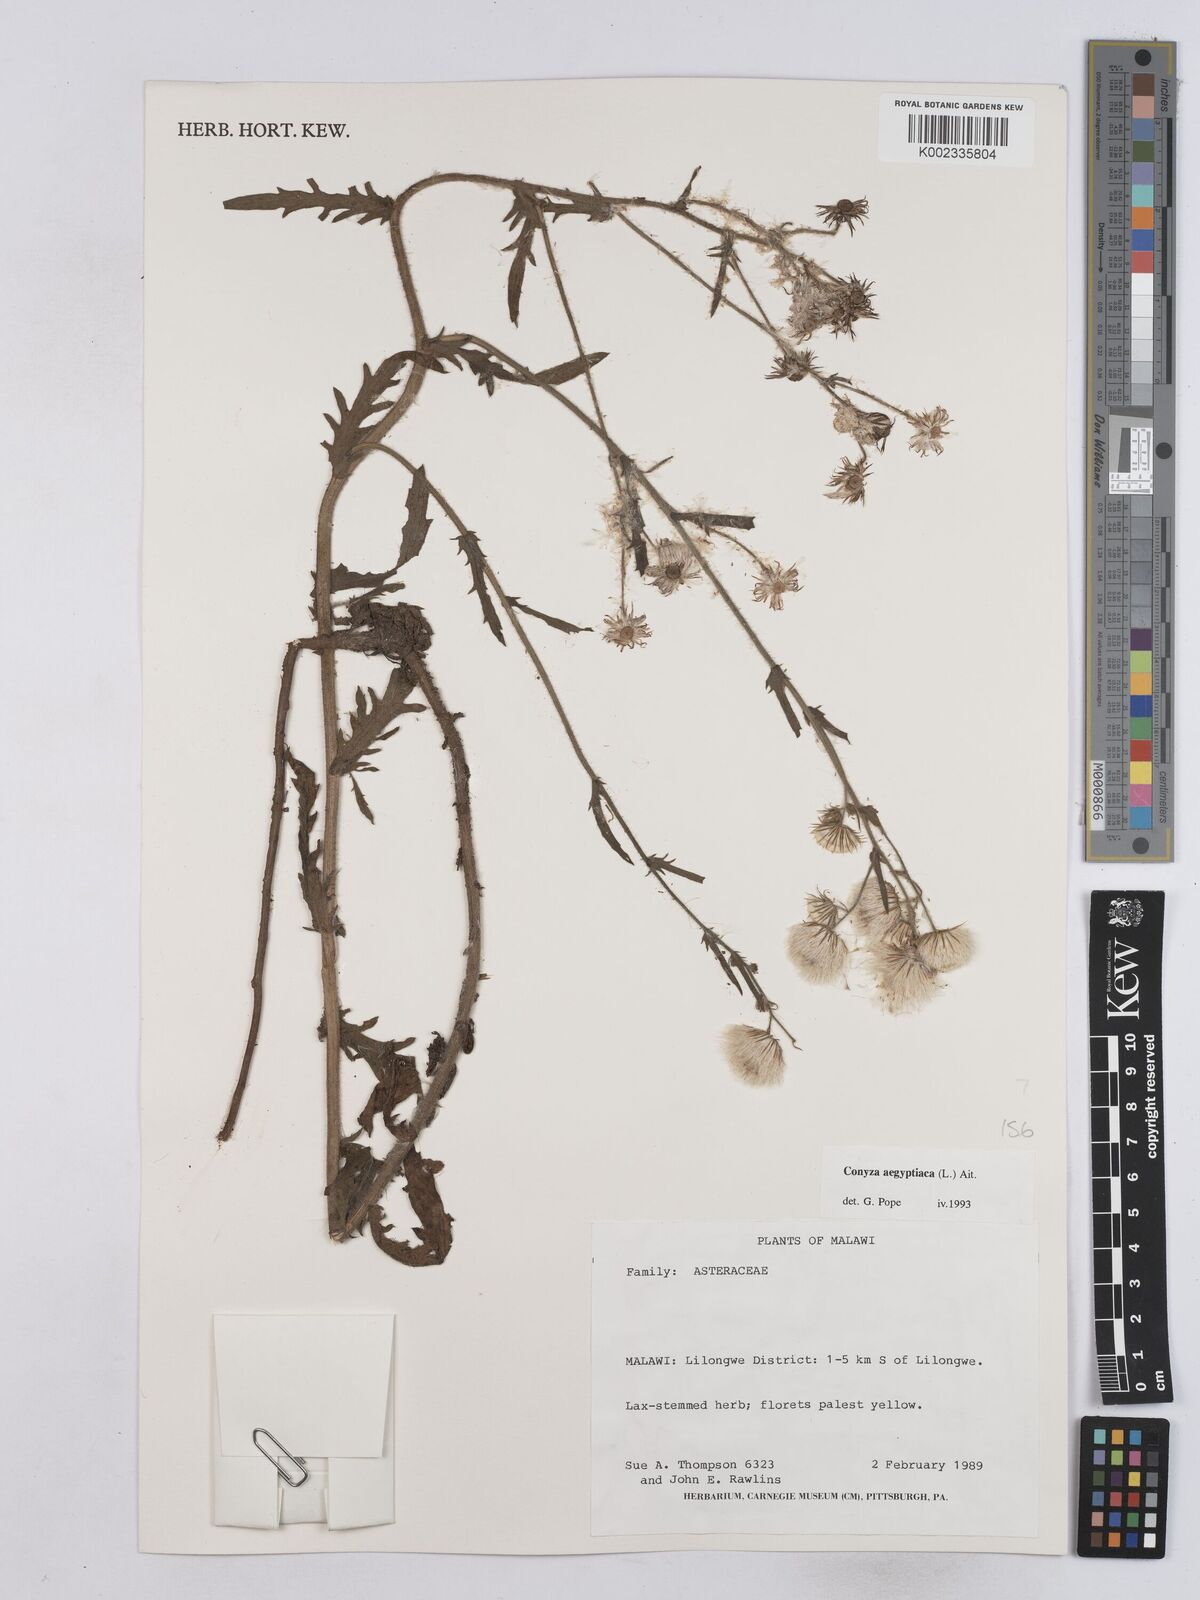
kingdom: Plantae
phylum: Tracheophyta
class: Magnoliopsida
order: Asterales
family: Asteraceae
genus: Nidorella
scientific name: Nidorella aegyptiaca
